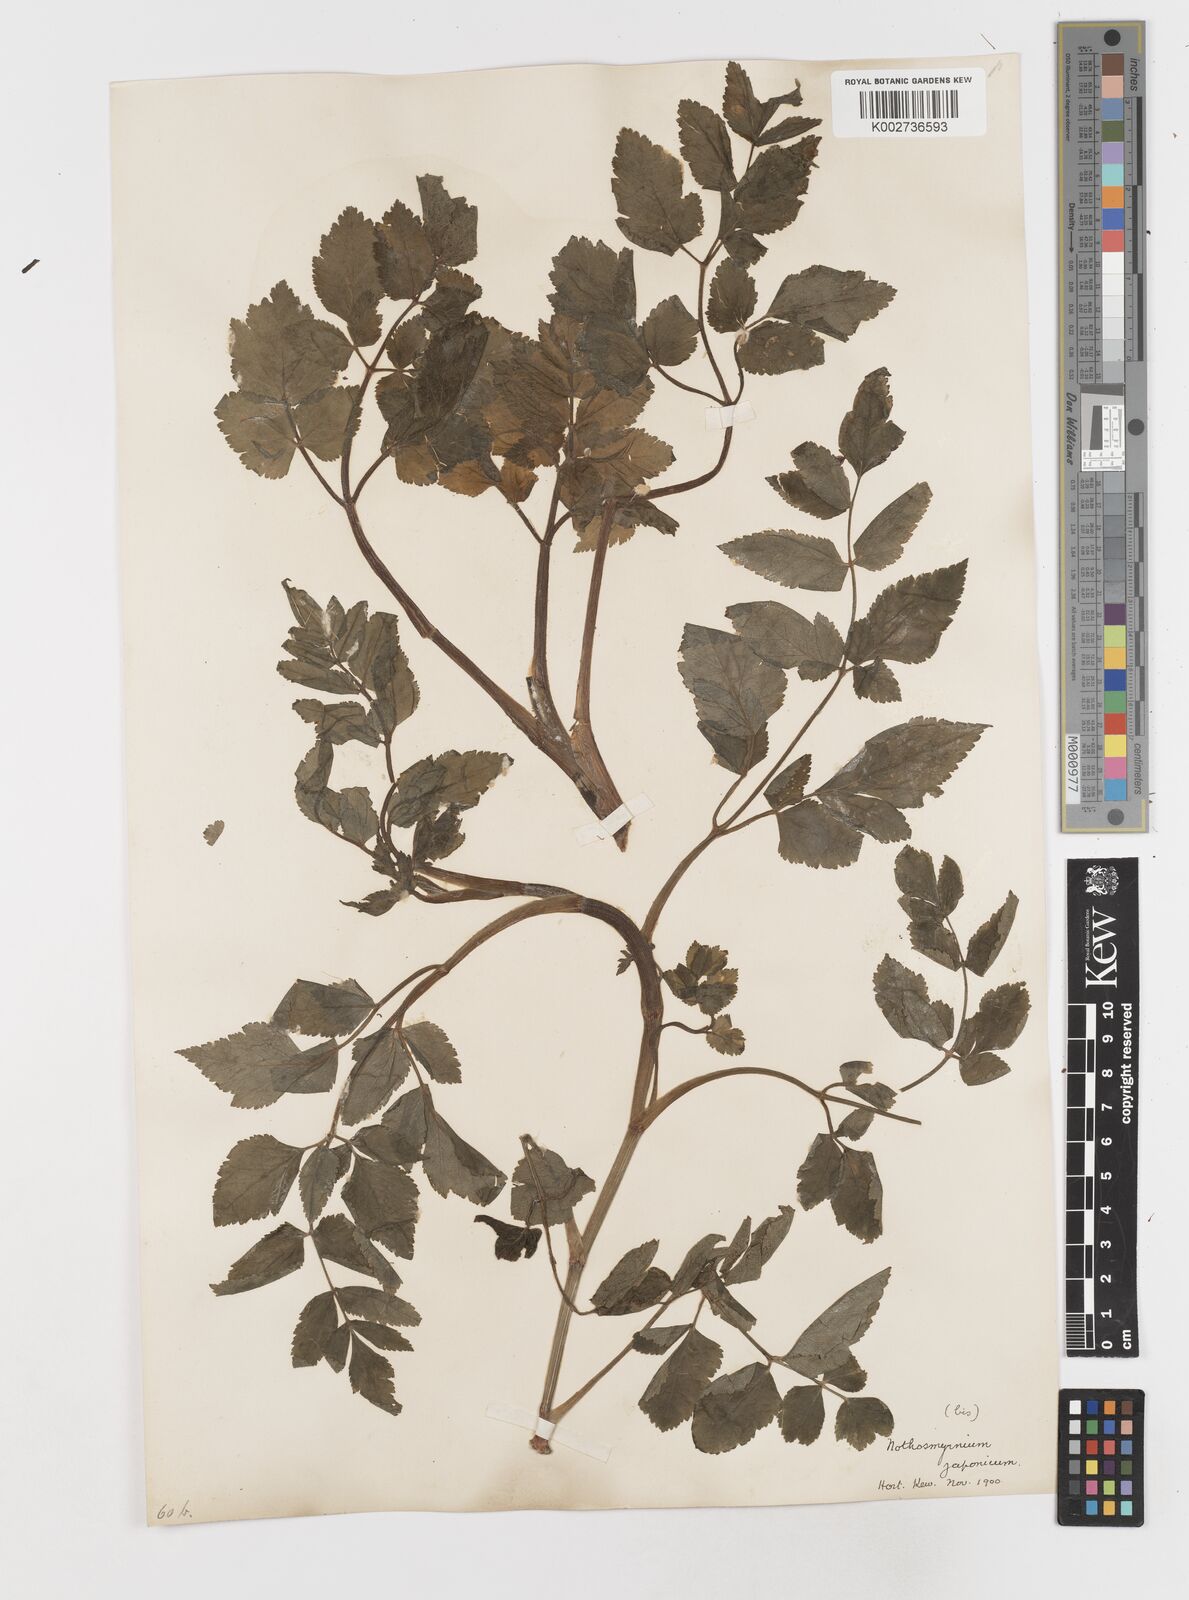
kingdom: Plantae
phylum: Tracheophyta
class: Magnoliopsida
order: Apiales
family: Apiaceae
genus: Nothosmyrnium
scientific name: Nothosmyrnium japonicum
